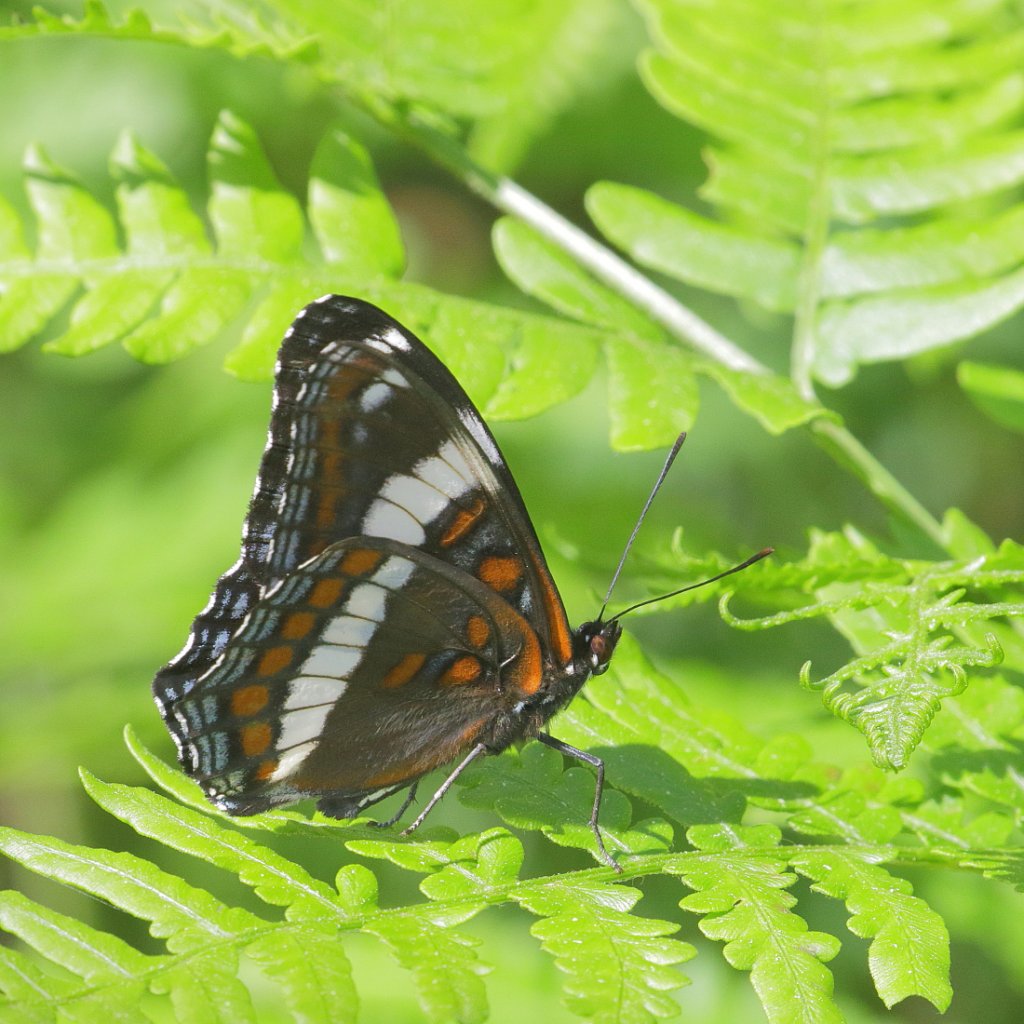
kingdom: Animalia
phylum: Arthropoda
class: Insecta
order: Lepidoptera
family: Nymphalidae
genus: Limenitis
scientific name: Limenitis arthemis
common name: Red-spotted Admiral
